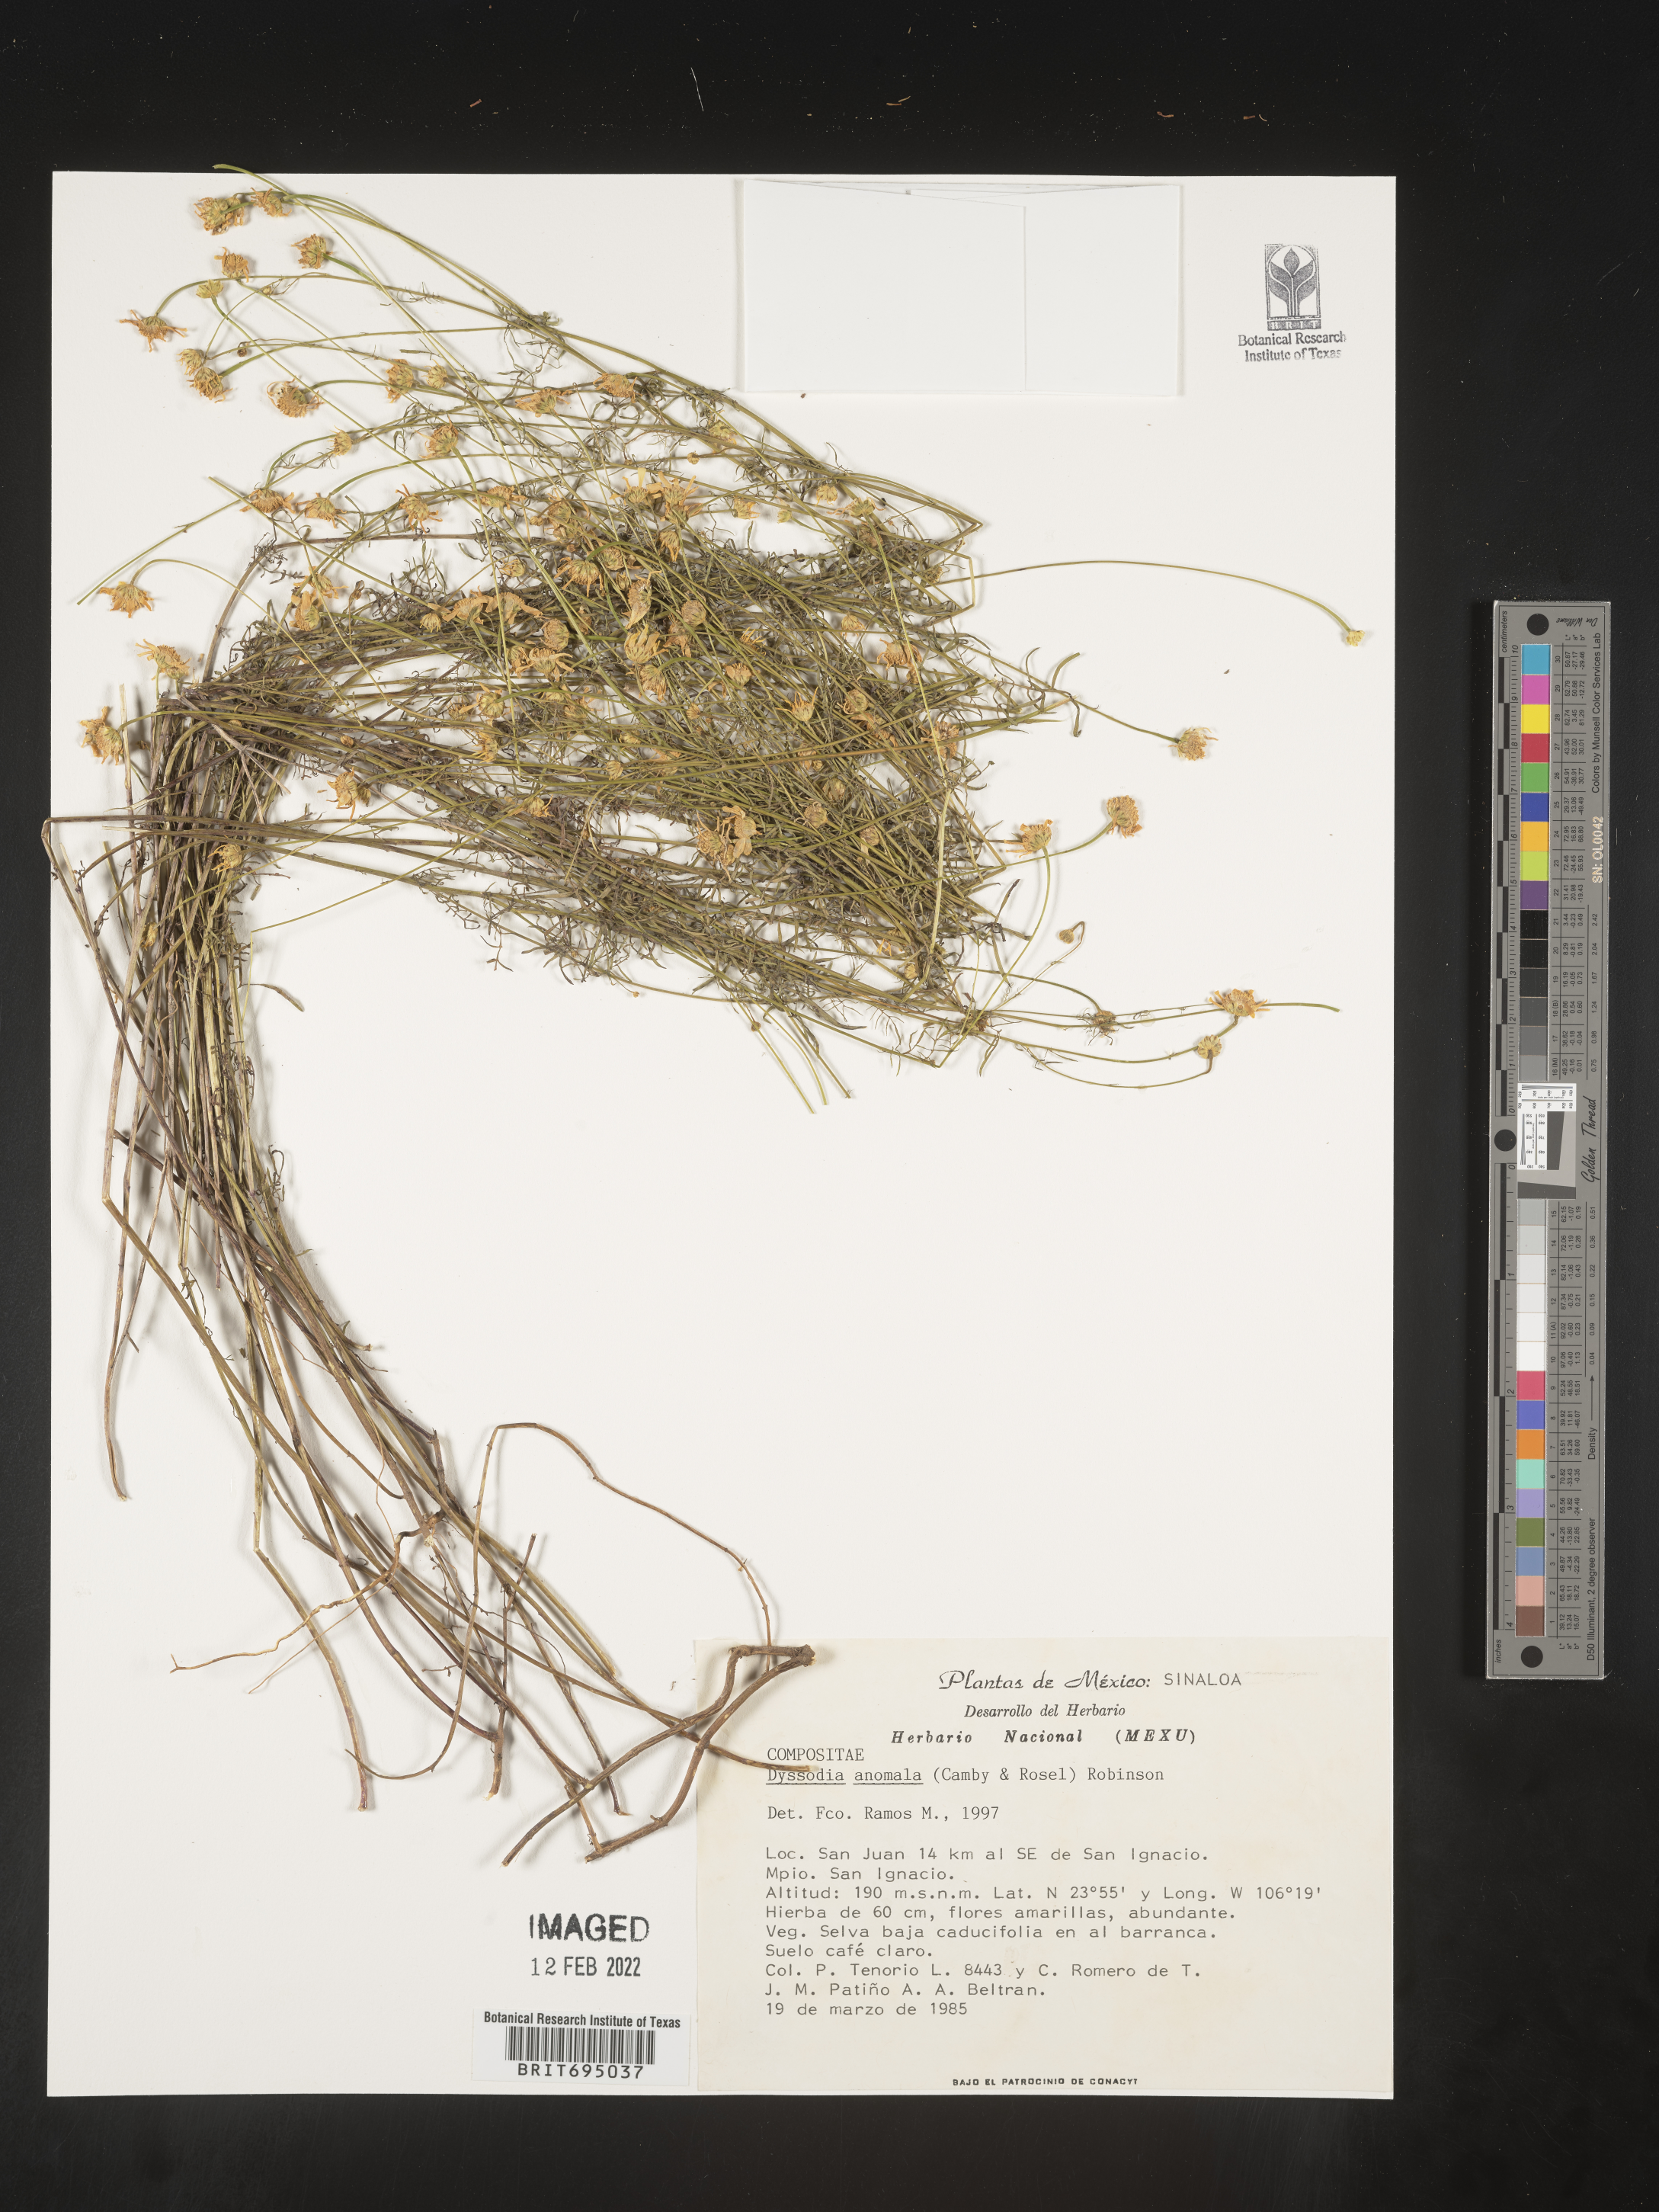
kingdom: Plantae
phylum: Tracheophyta
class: Magnoliopsida
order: Asterales
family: Asteraceae
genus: Adenophyllum
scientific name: Adenophyllum anomalum
